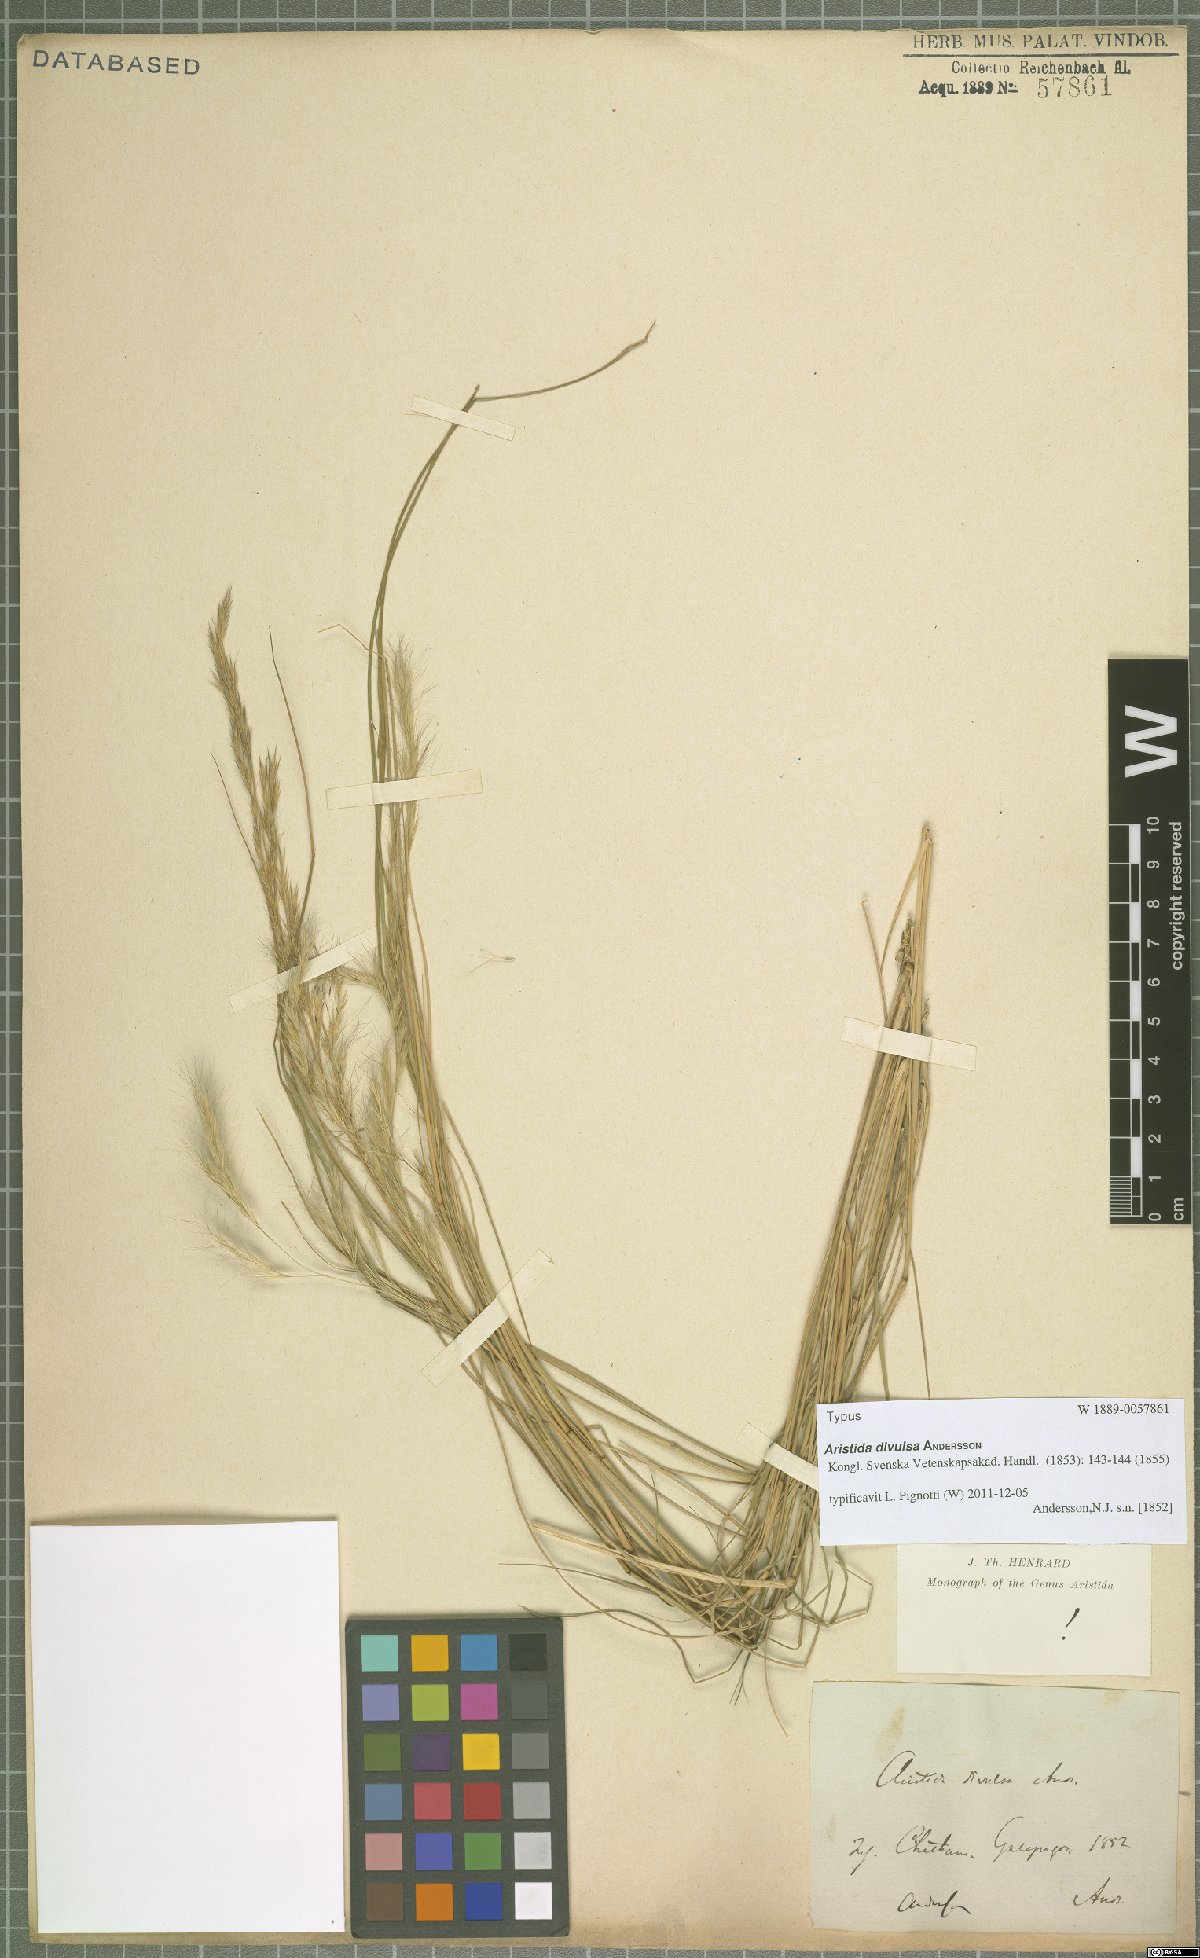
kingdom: Plantae
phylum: Tracheophyta
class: Liliopsida
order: Poales
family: Poaceae
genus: Aristida
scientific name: Aristida divulsa
